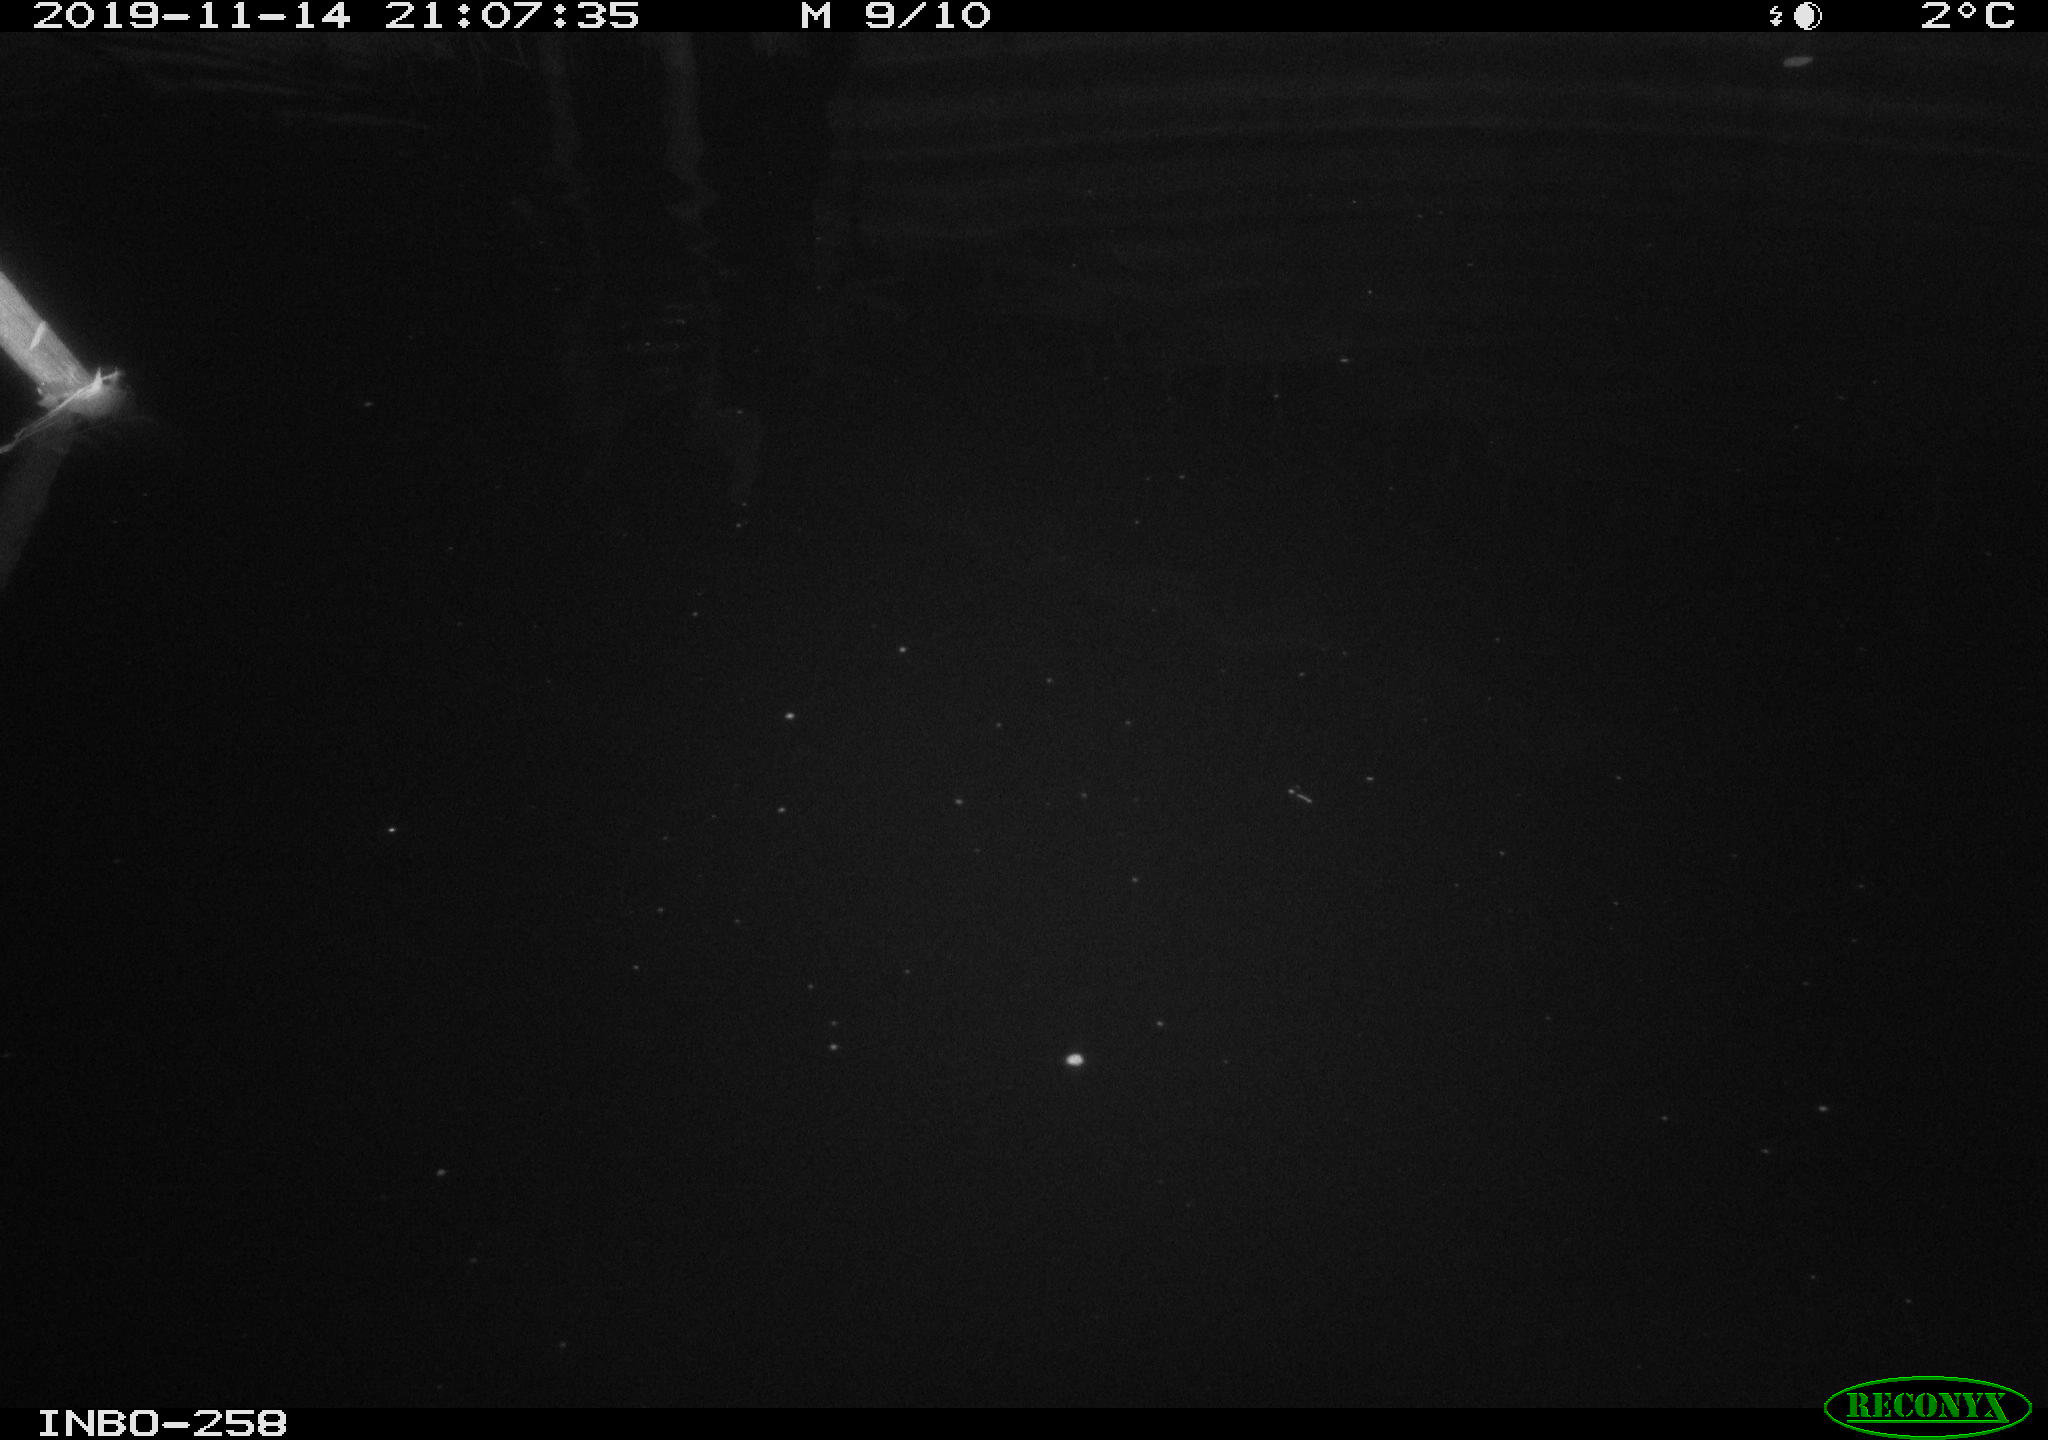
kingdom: Animalia
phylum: Chordata
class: Mammalia
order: Rodentia
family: Muridae
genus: Rattus
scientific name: Rattus norvegicus
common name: Brown rat
